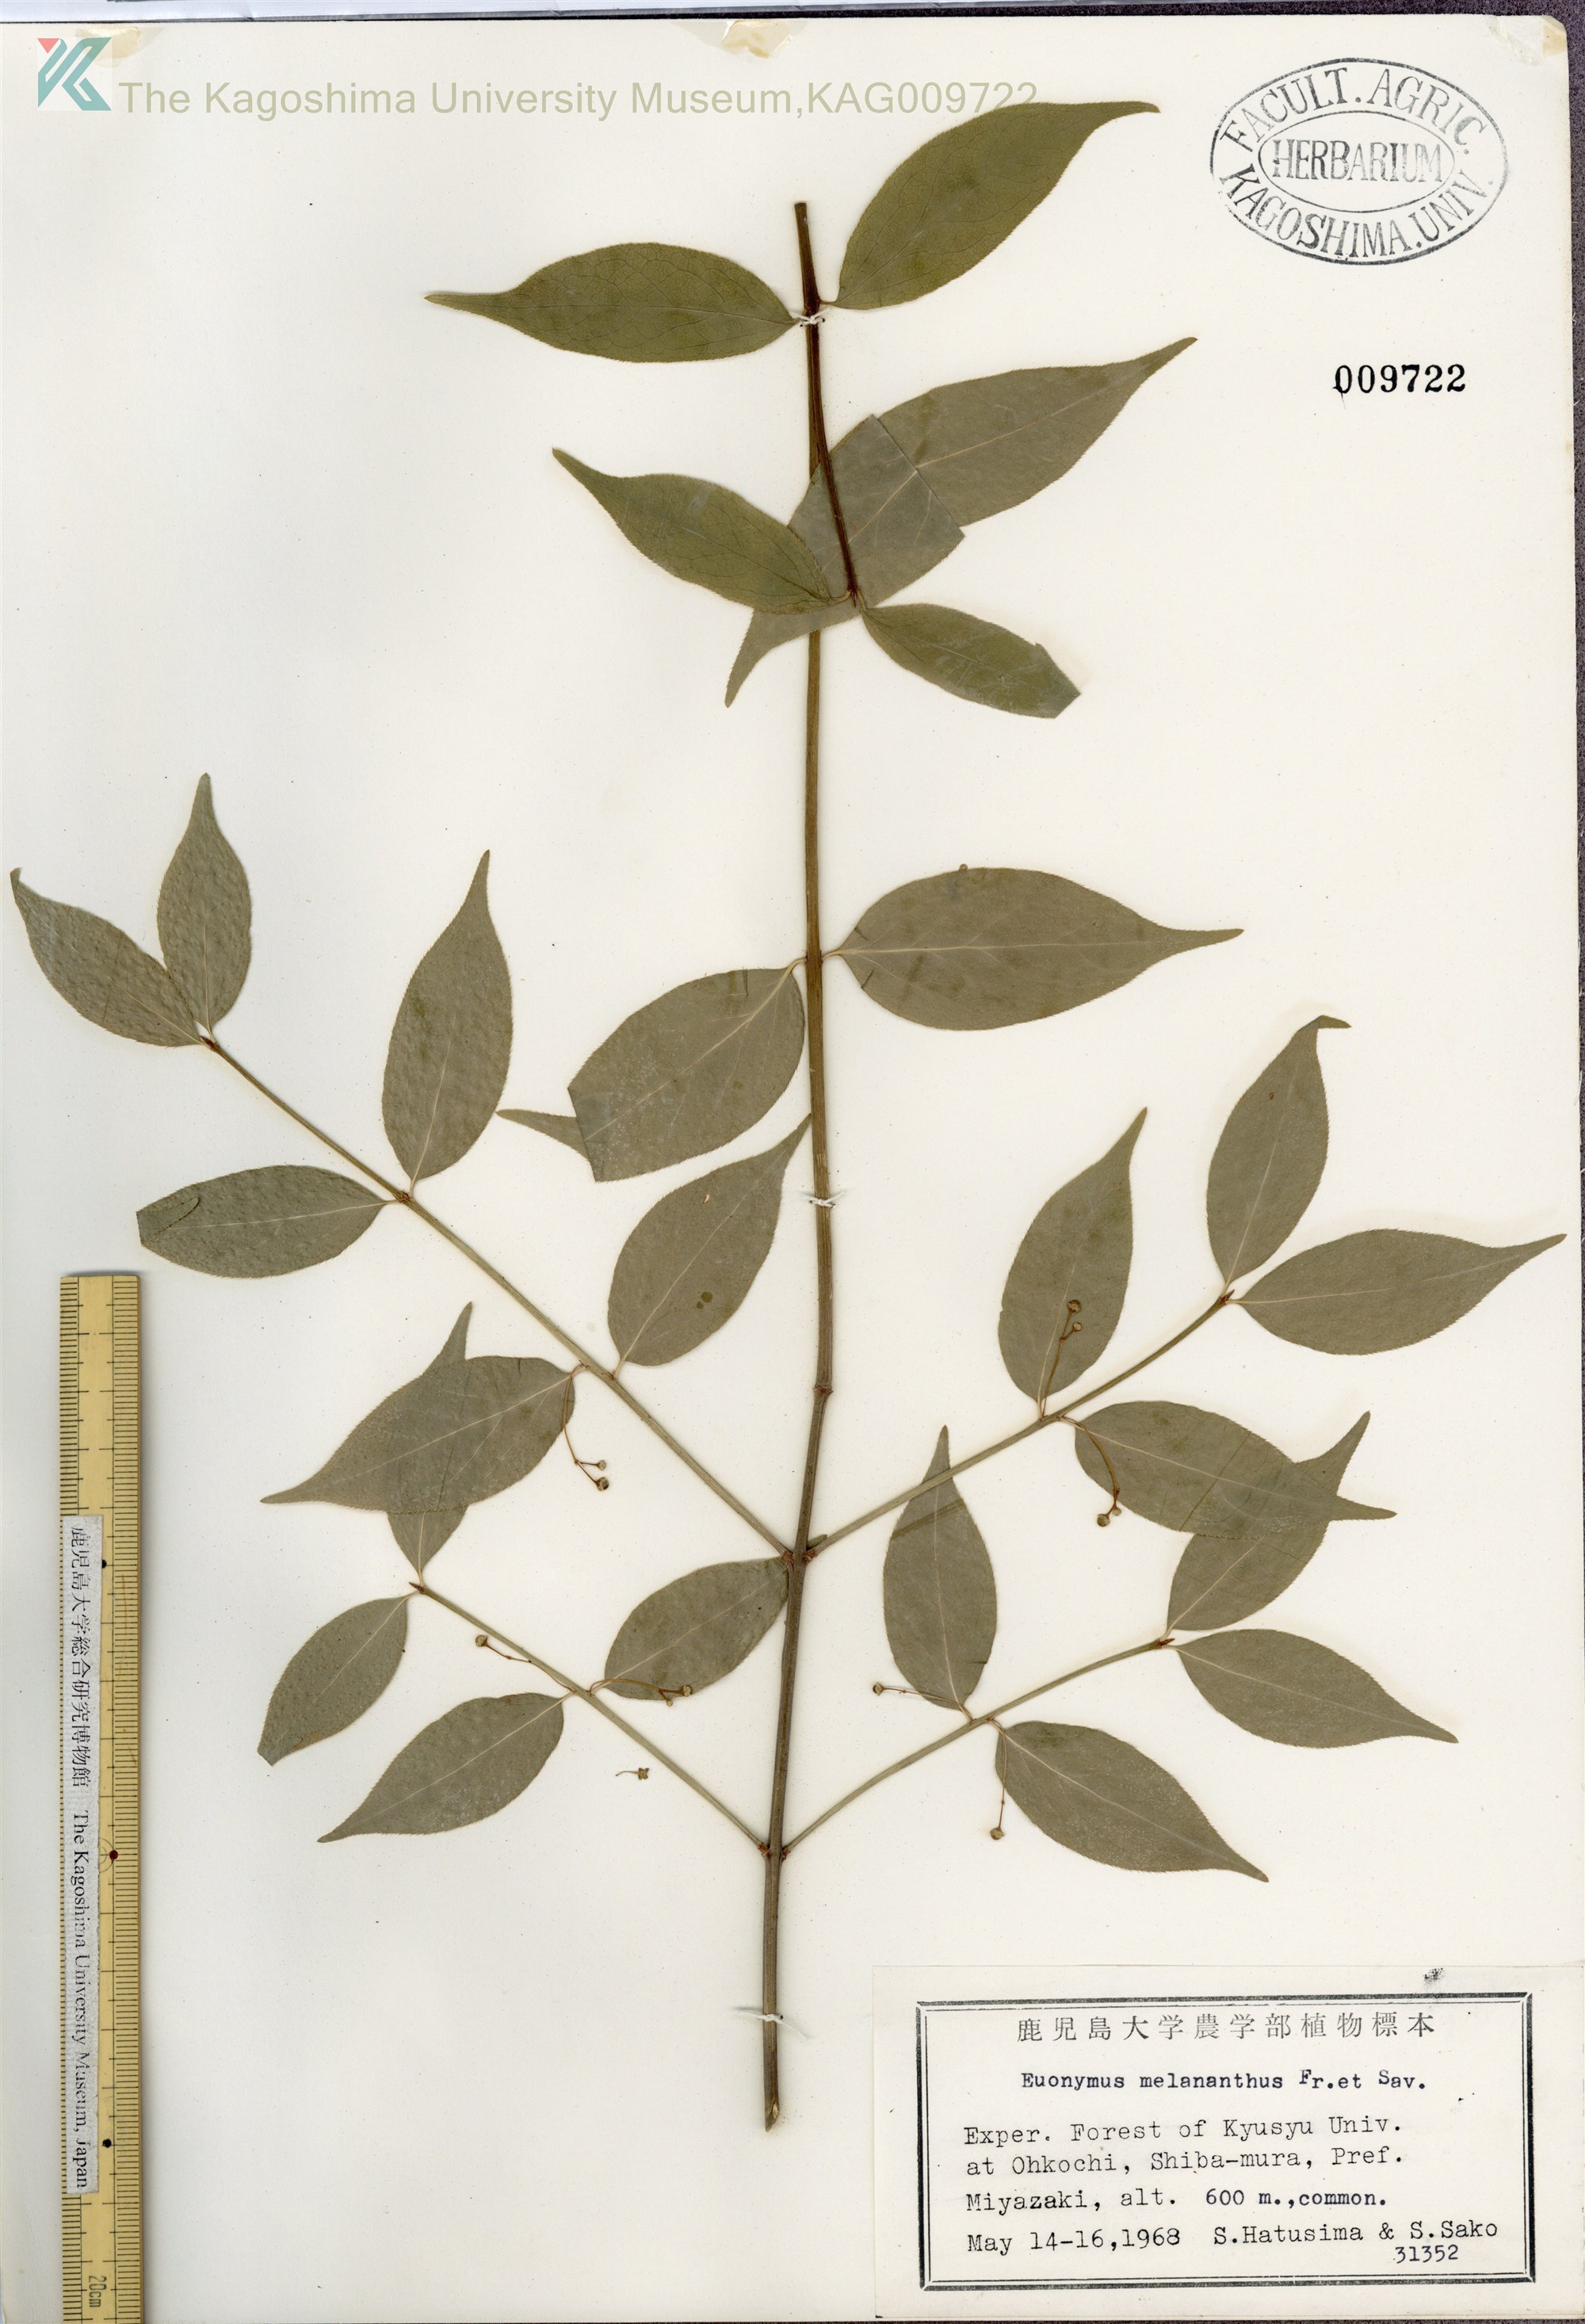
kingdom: Plantae
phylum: Tracheophyta
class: Magnoliopsida
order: Celastrales
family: Celastraceae
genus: Euonymus
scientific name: Euonymus melananthus
